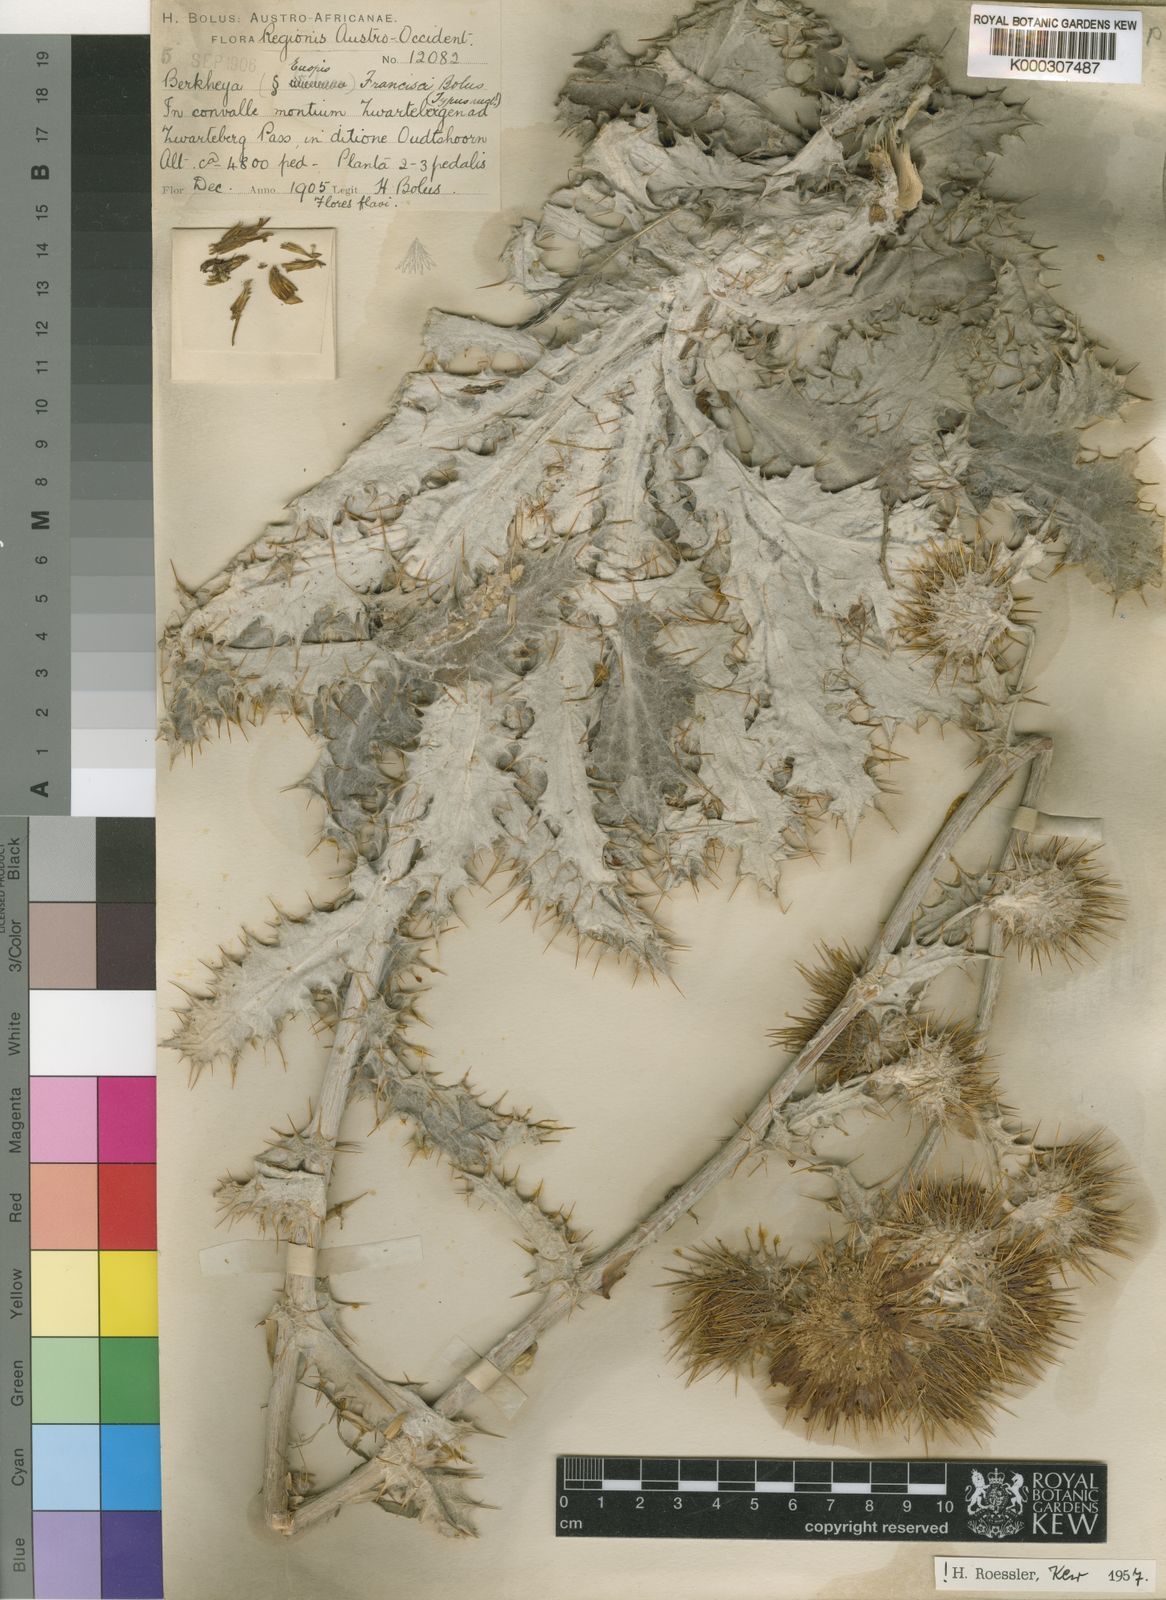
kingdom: Plantae
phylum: Tracheophyta
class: Magnoliopsida
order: Asterales
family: Asteraceae
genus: Berkheya
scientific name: Berkheya francisci
